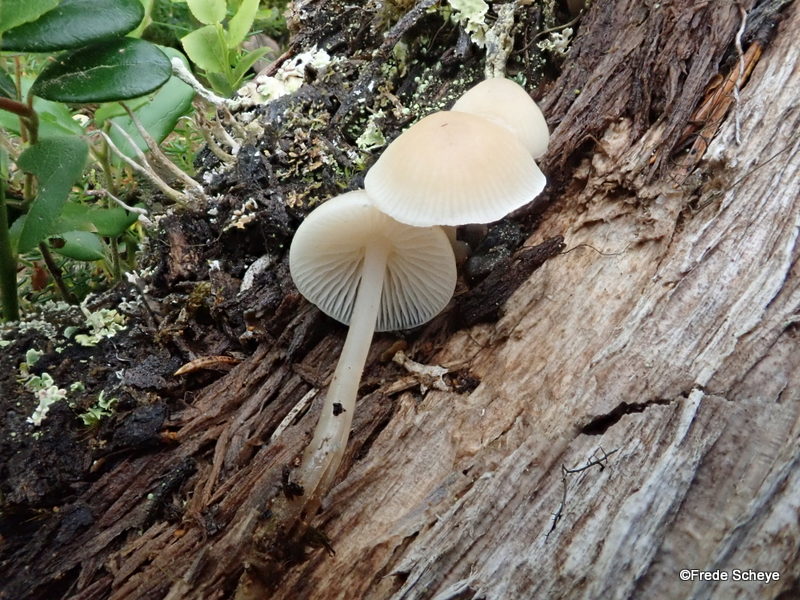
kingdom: Fungi
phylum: Basidiomycota
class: Agaricomycetes
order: Agaricales
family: Mycenaceae
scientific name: Mycenaceae
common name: huesvampfamilien
